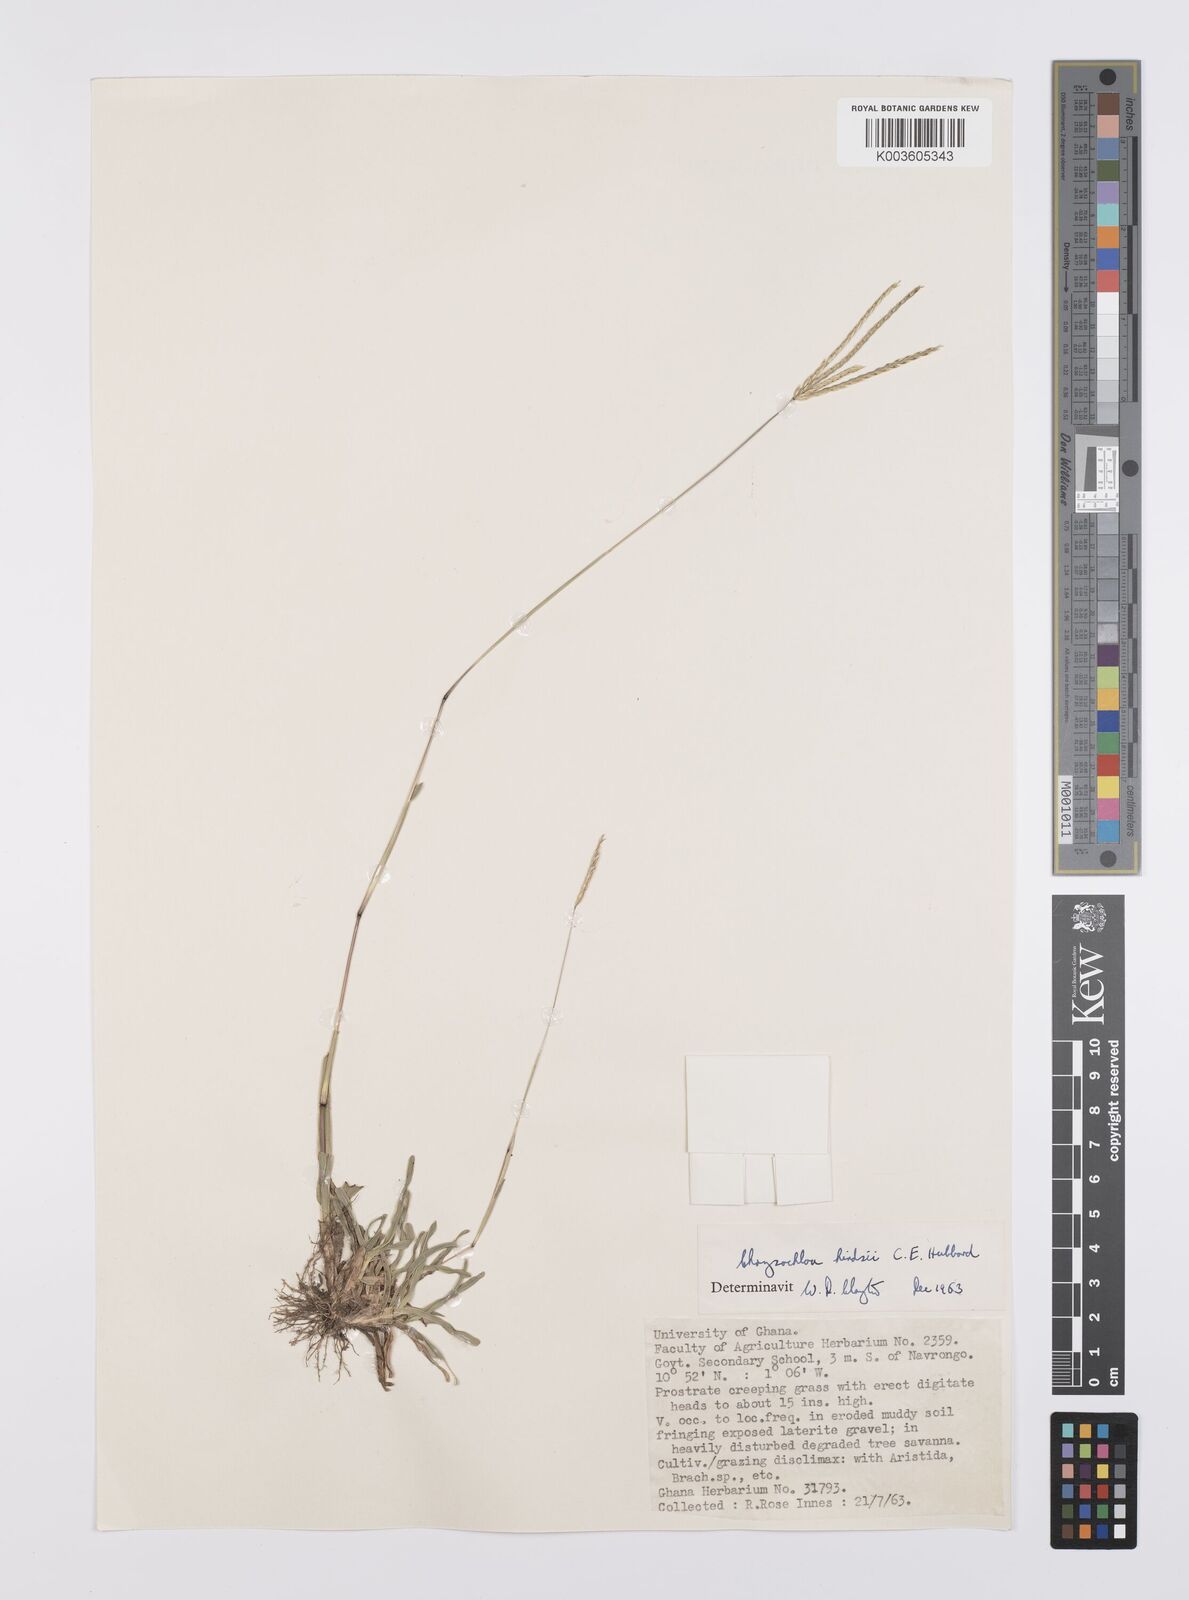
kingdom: Plantae
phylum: Tracheophyta
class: Liliopsida
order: Poales
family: Poaceae
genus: Chrysochloa
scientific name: Chrysochloa hindsii
